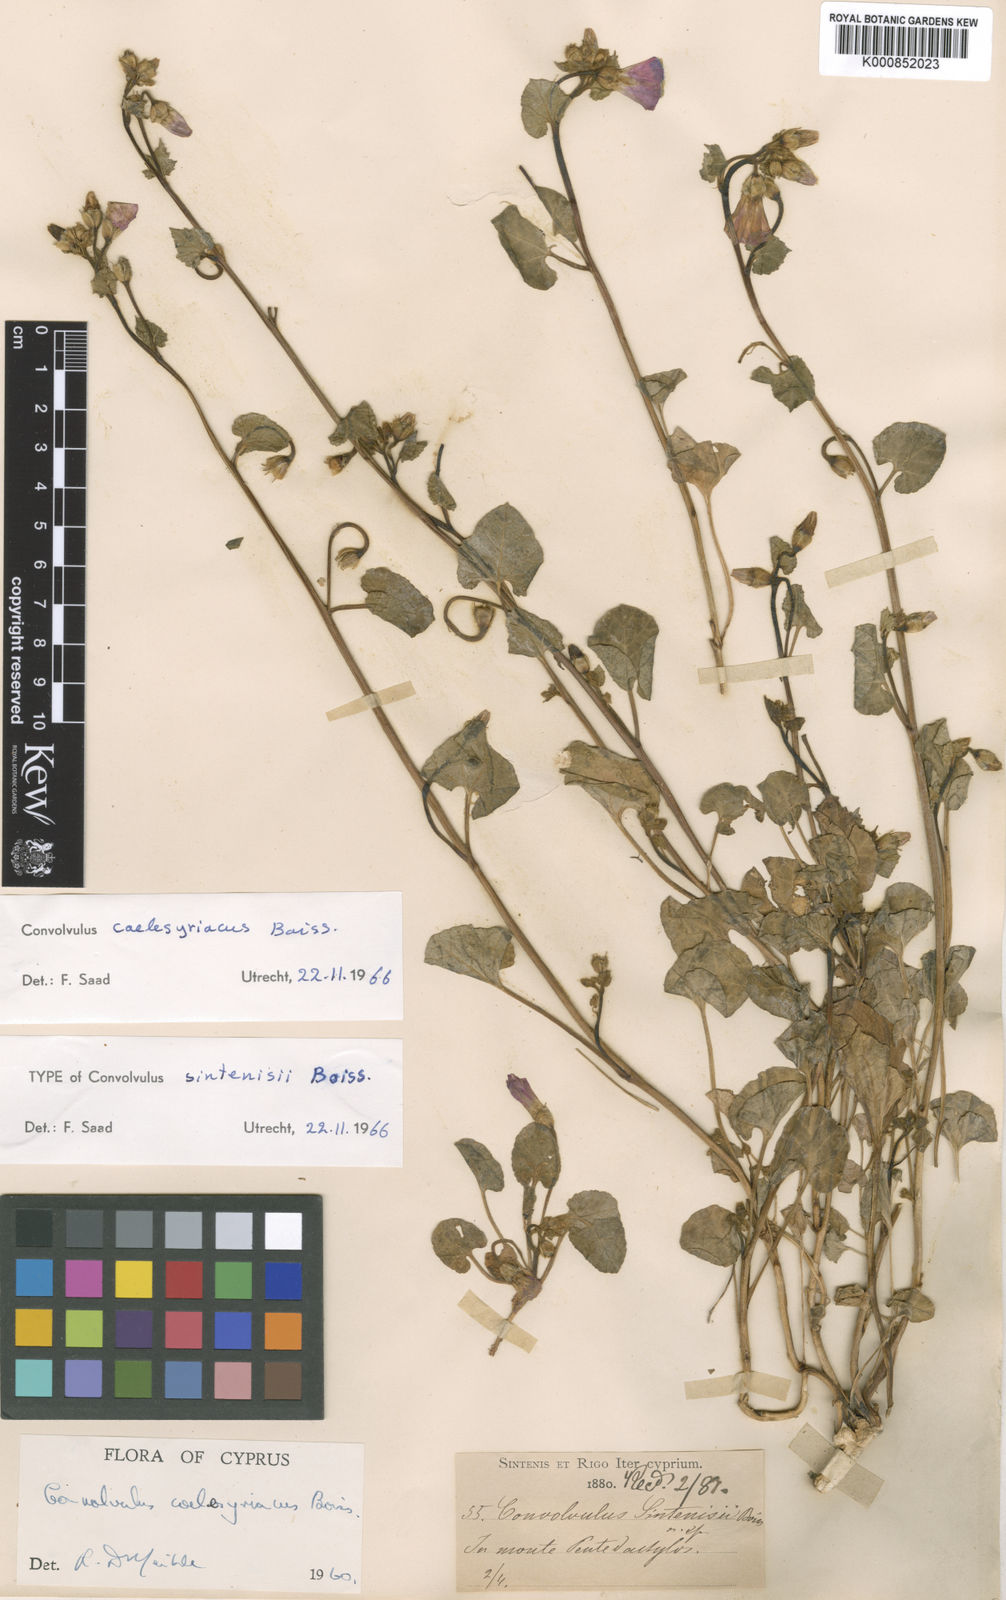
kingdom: Plantae
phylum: Tracheophyta
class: Magnoliopsida
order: Solanales
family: Convolvulaceae
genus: Convolvulus
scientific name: Convolvulus coelesyriacus
